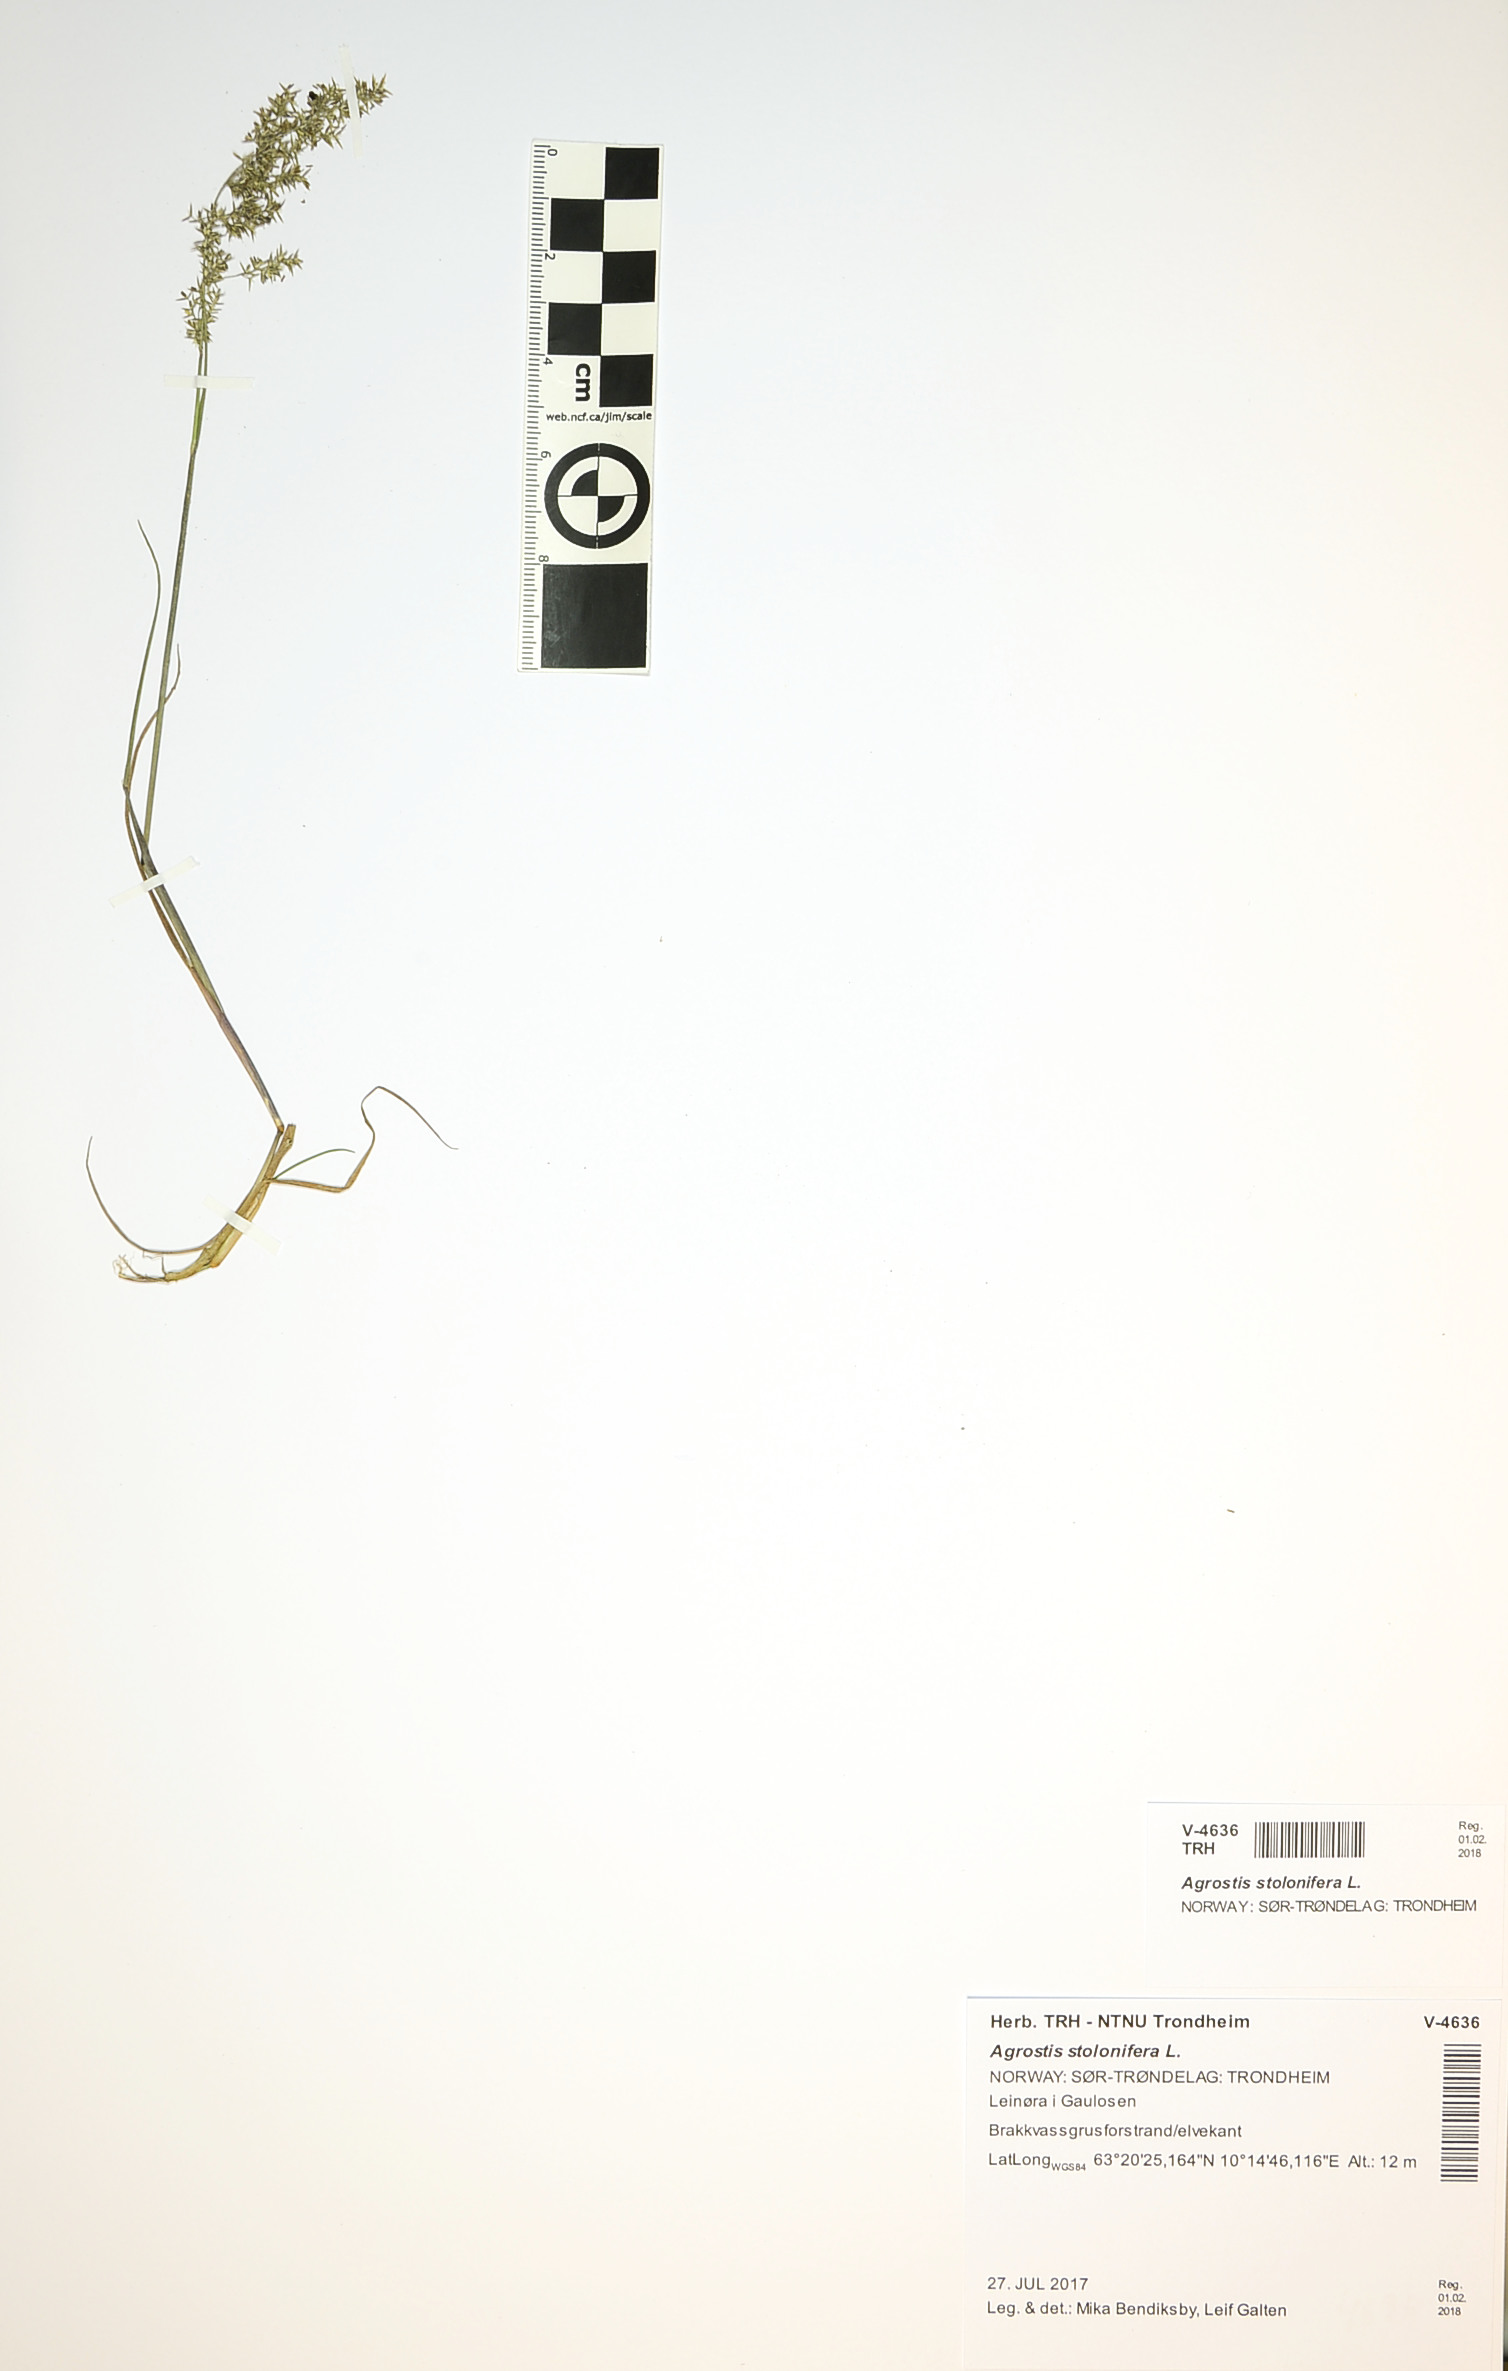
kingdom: Plantae
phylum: Tracheophyta
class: Liliopsida
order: Poales
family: Poaceae
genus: Agrostis
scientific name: Agrostis stolonifera
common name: Creeping bentgrass
